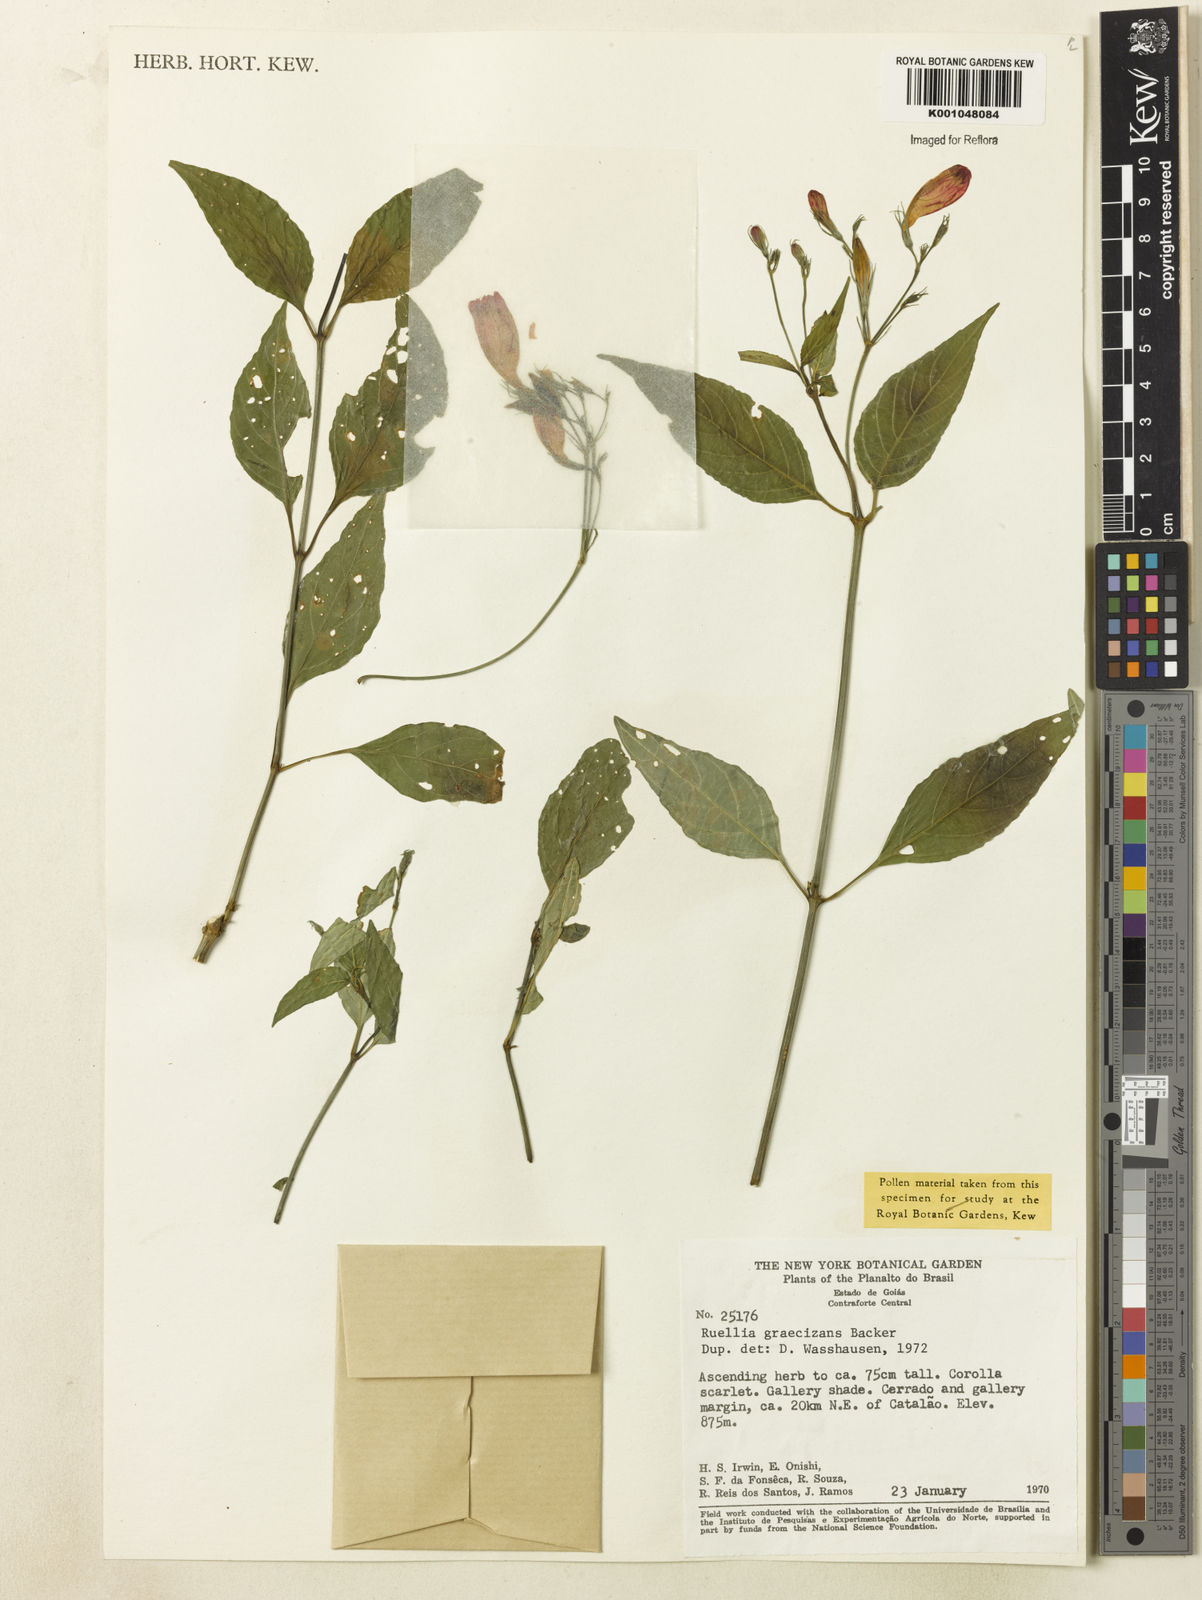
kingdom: Plantae
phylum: Tracheophyta
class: Magnoliopsida
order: Lamiales
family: Acanthaceae
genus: Ruellia
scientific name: Ruellia brevifolia
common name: Tropical wild petunia
